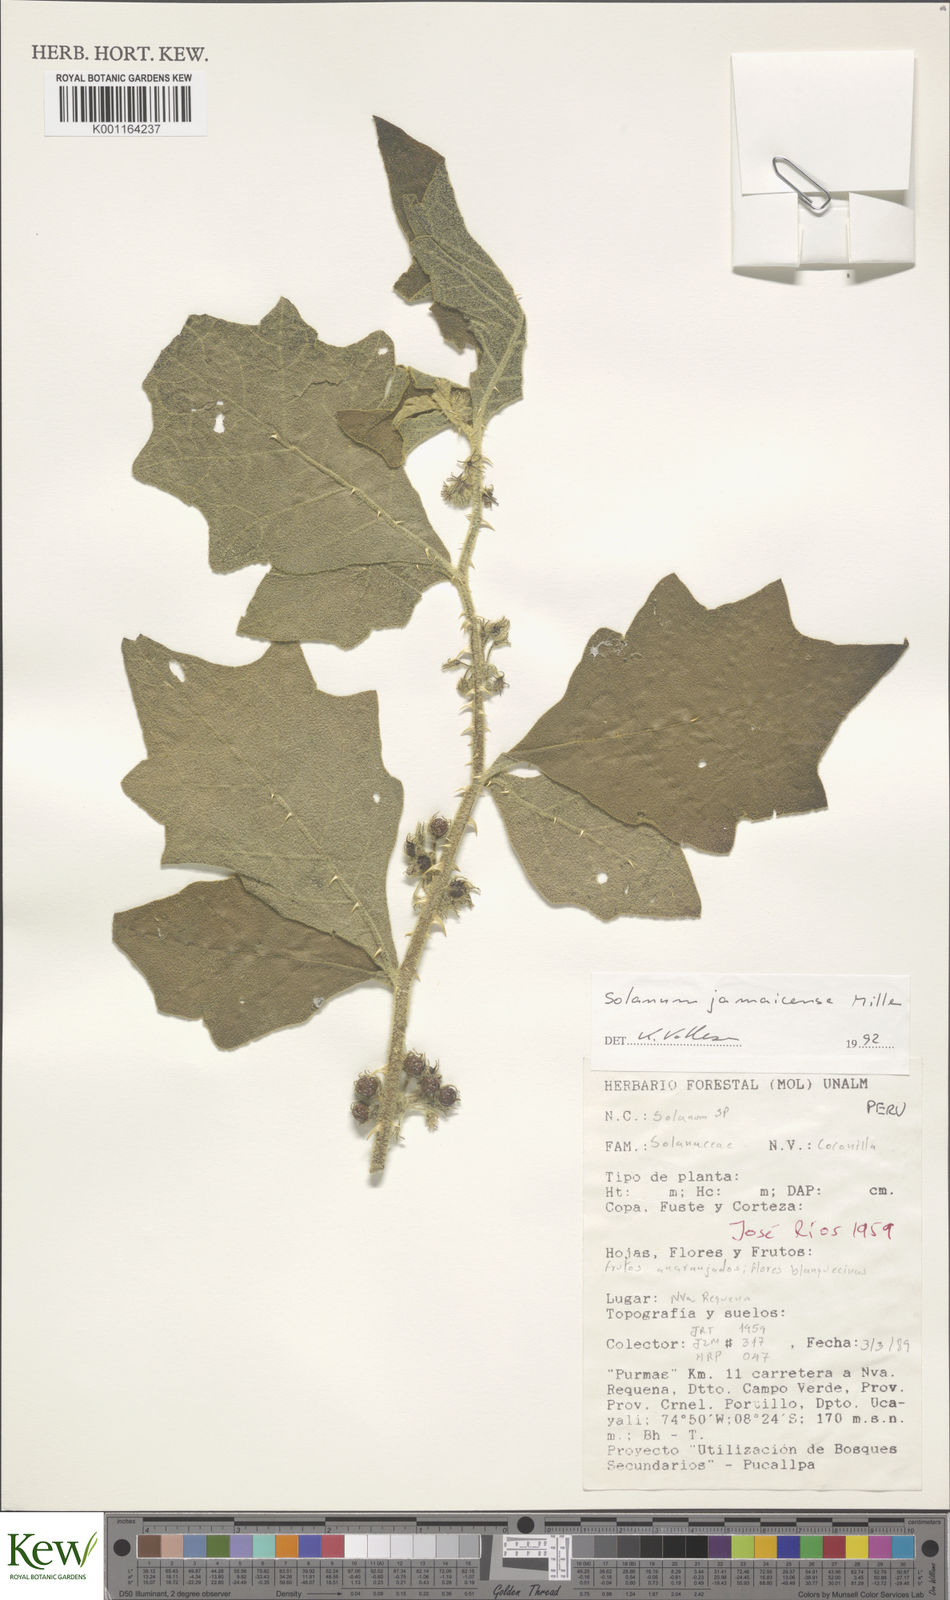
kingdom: Plantae
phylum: Tracheophyta
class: Magnoliopsida
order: Solanales
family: Solanaceae
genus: Solanum
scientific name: Solanum jamaicense
